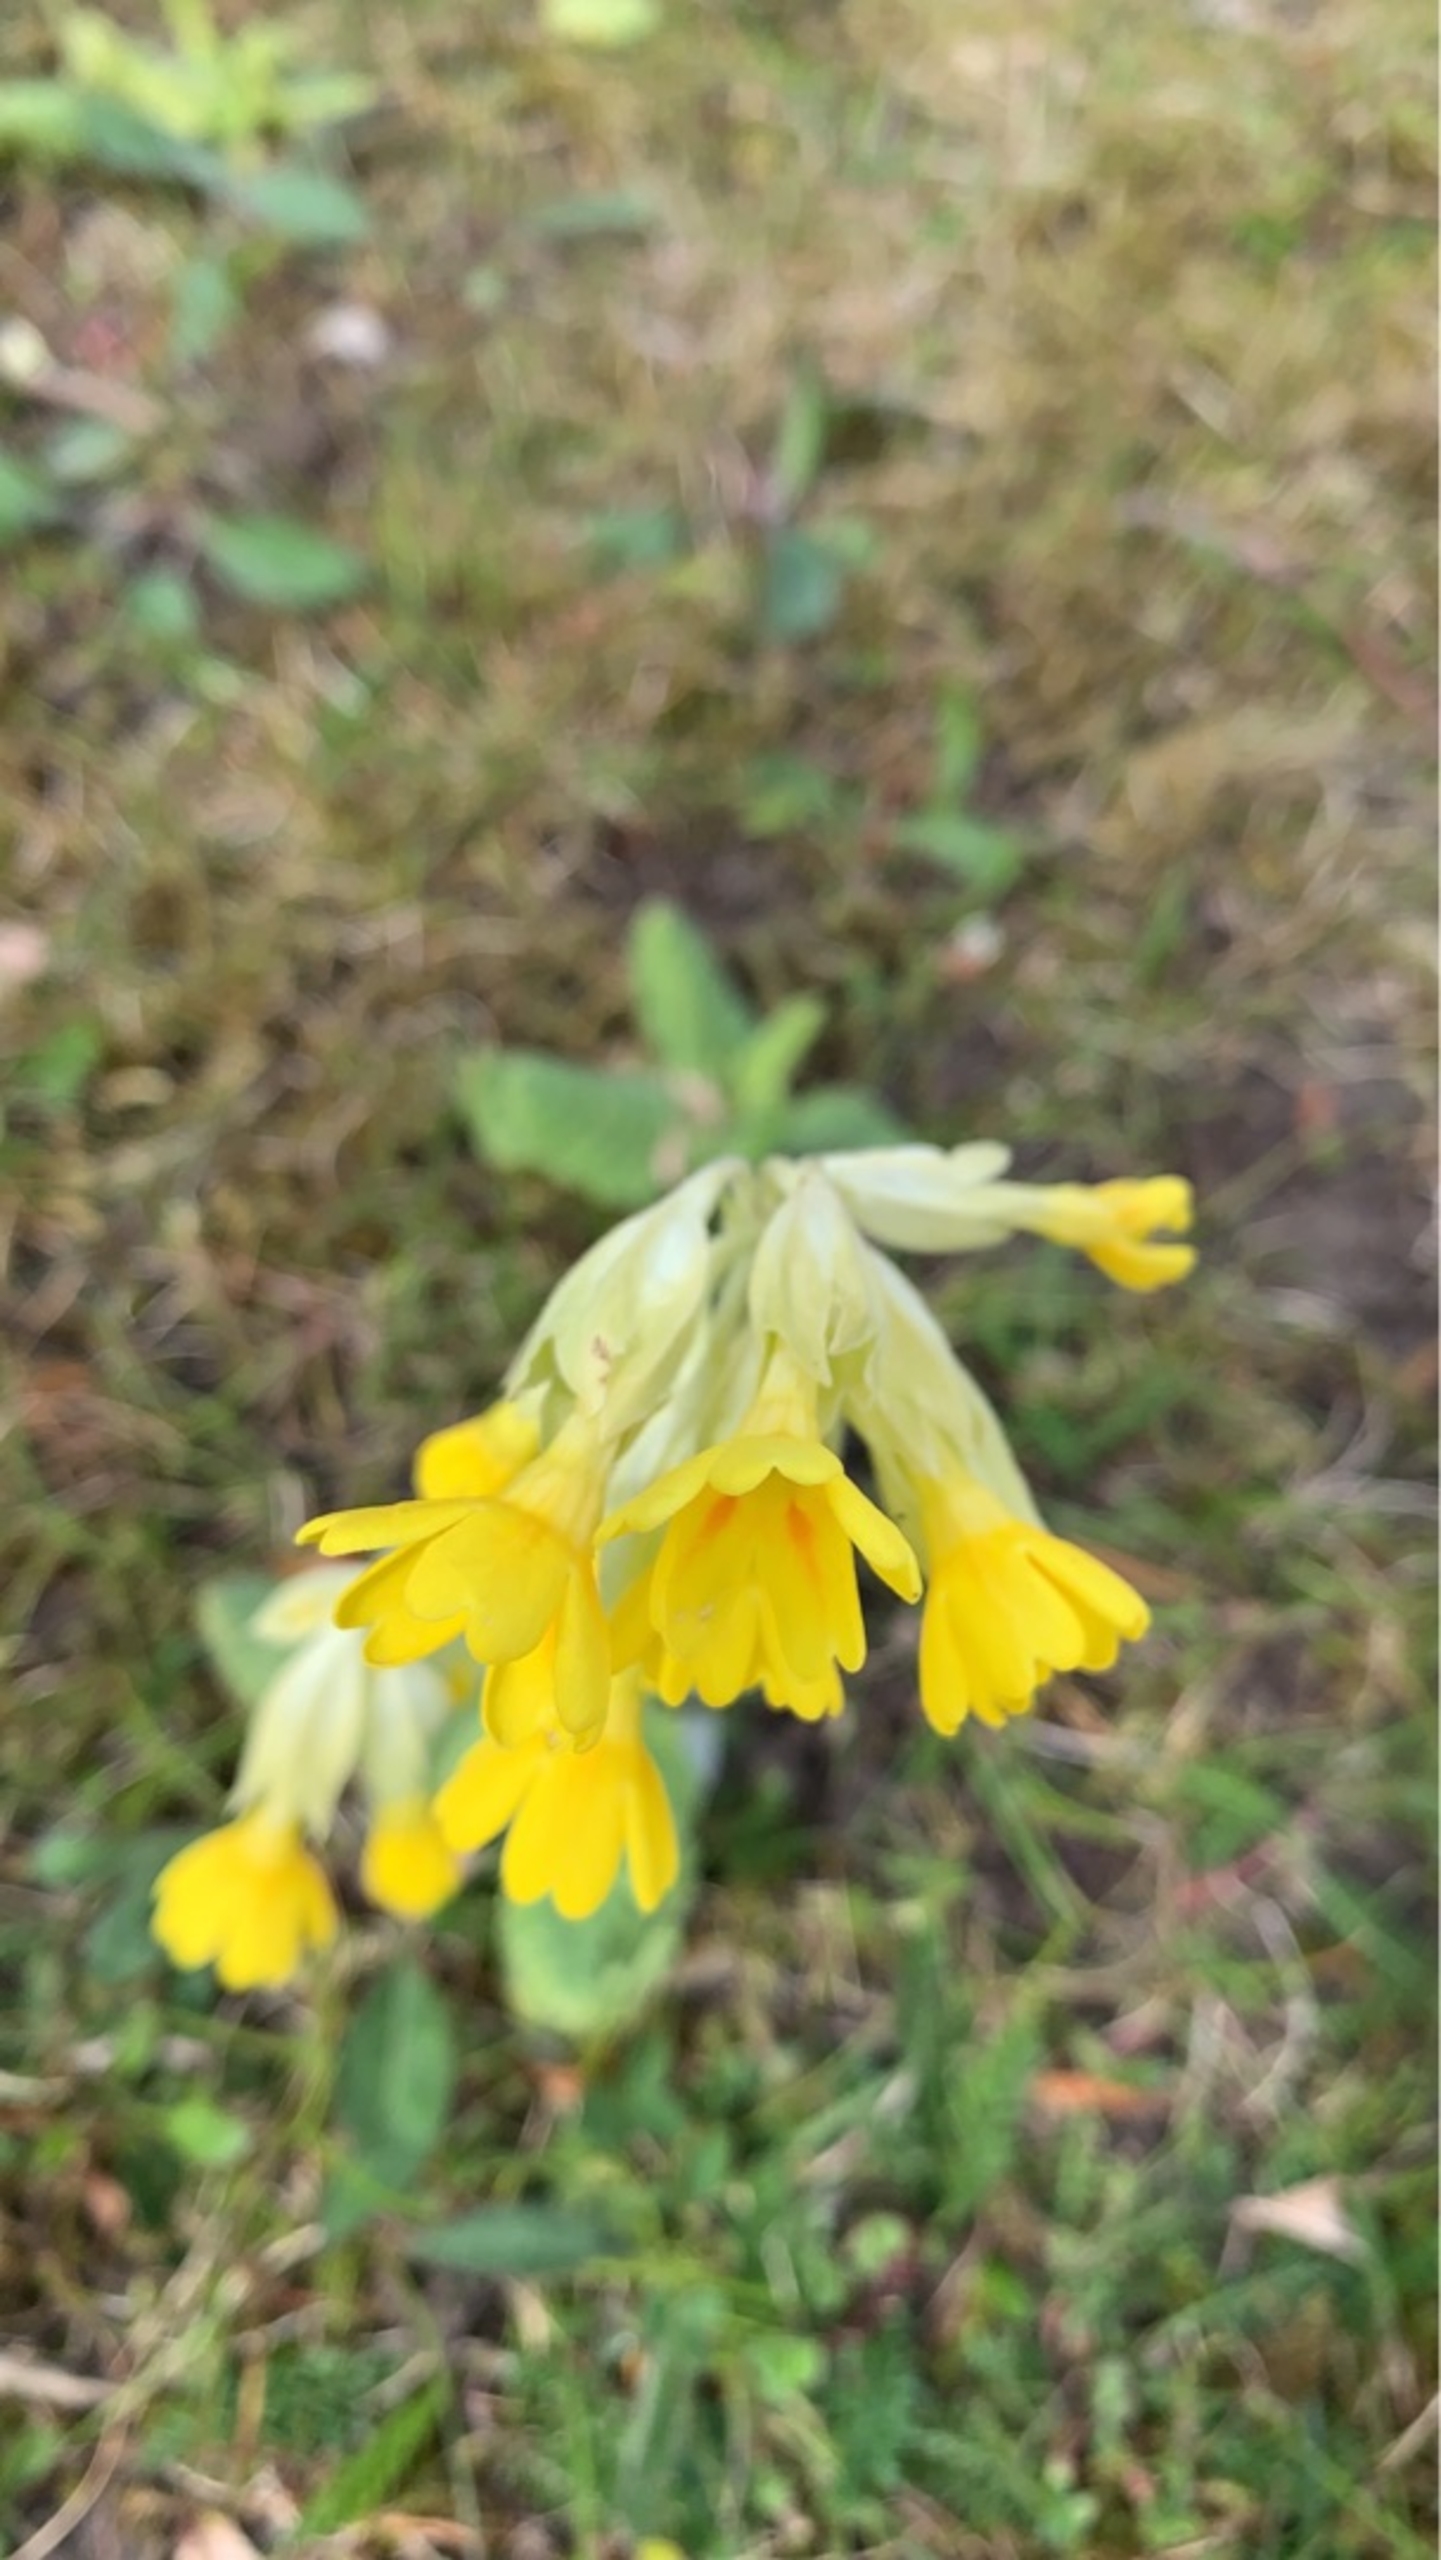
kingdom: Plantae
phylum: Tracheophyta
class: Magnoliopsida
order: Ericales
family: Primulaceae
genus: Primula
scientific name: Primula veris
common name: Hulkravet kodriver
